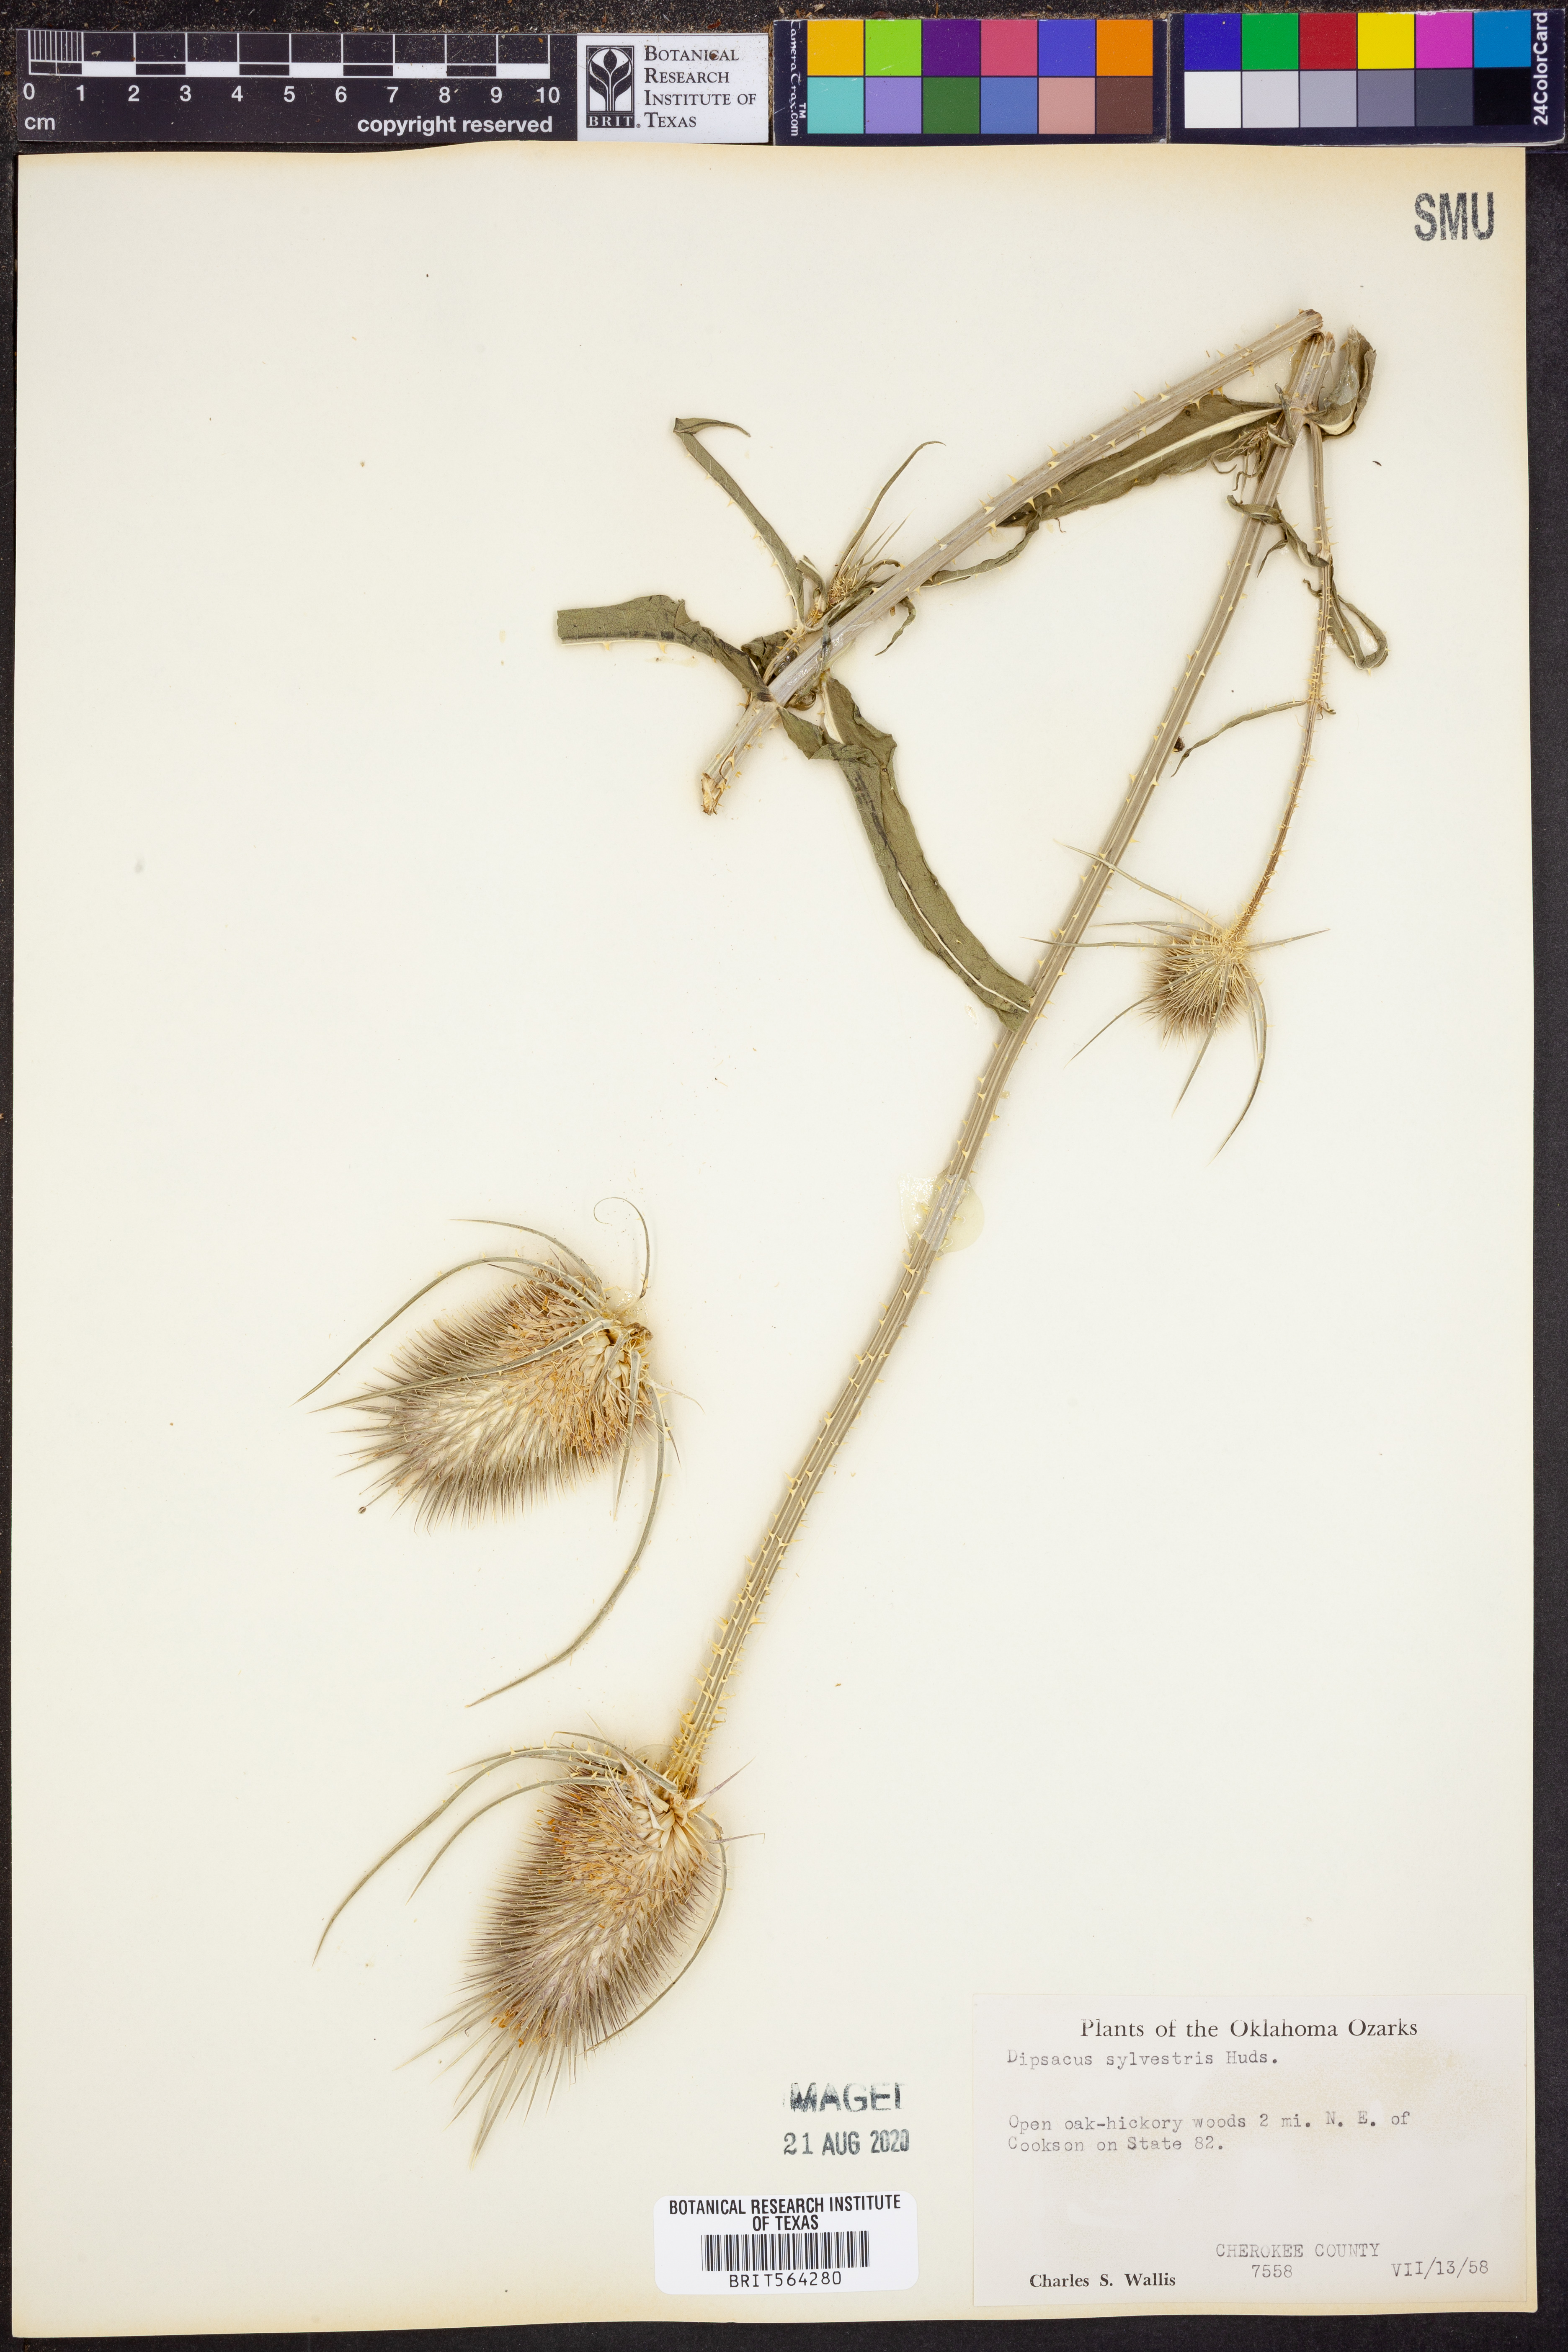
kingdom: Plantae
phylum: Tracheophyta
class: Magnoliopsida
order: Dipsacales
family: Caprifoliaceae
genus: Dipsacus
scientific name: Dipsacus fullonum
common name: Teasel
